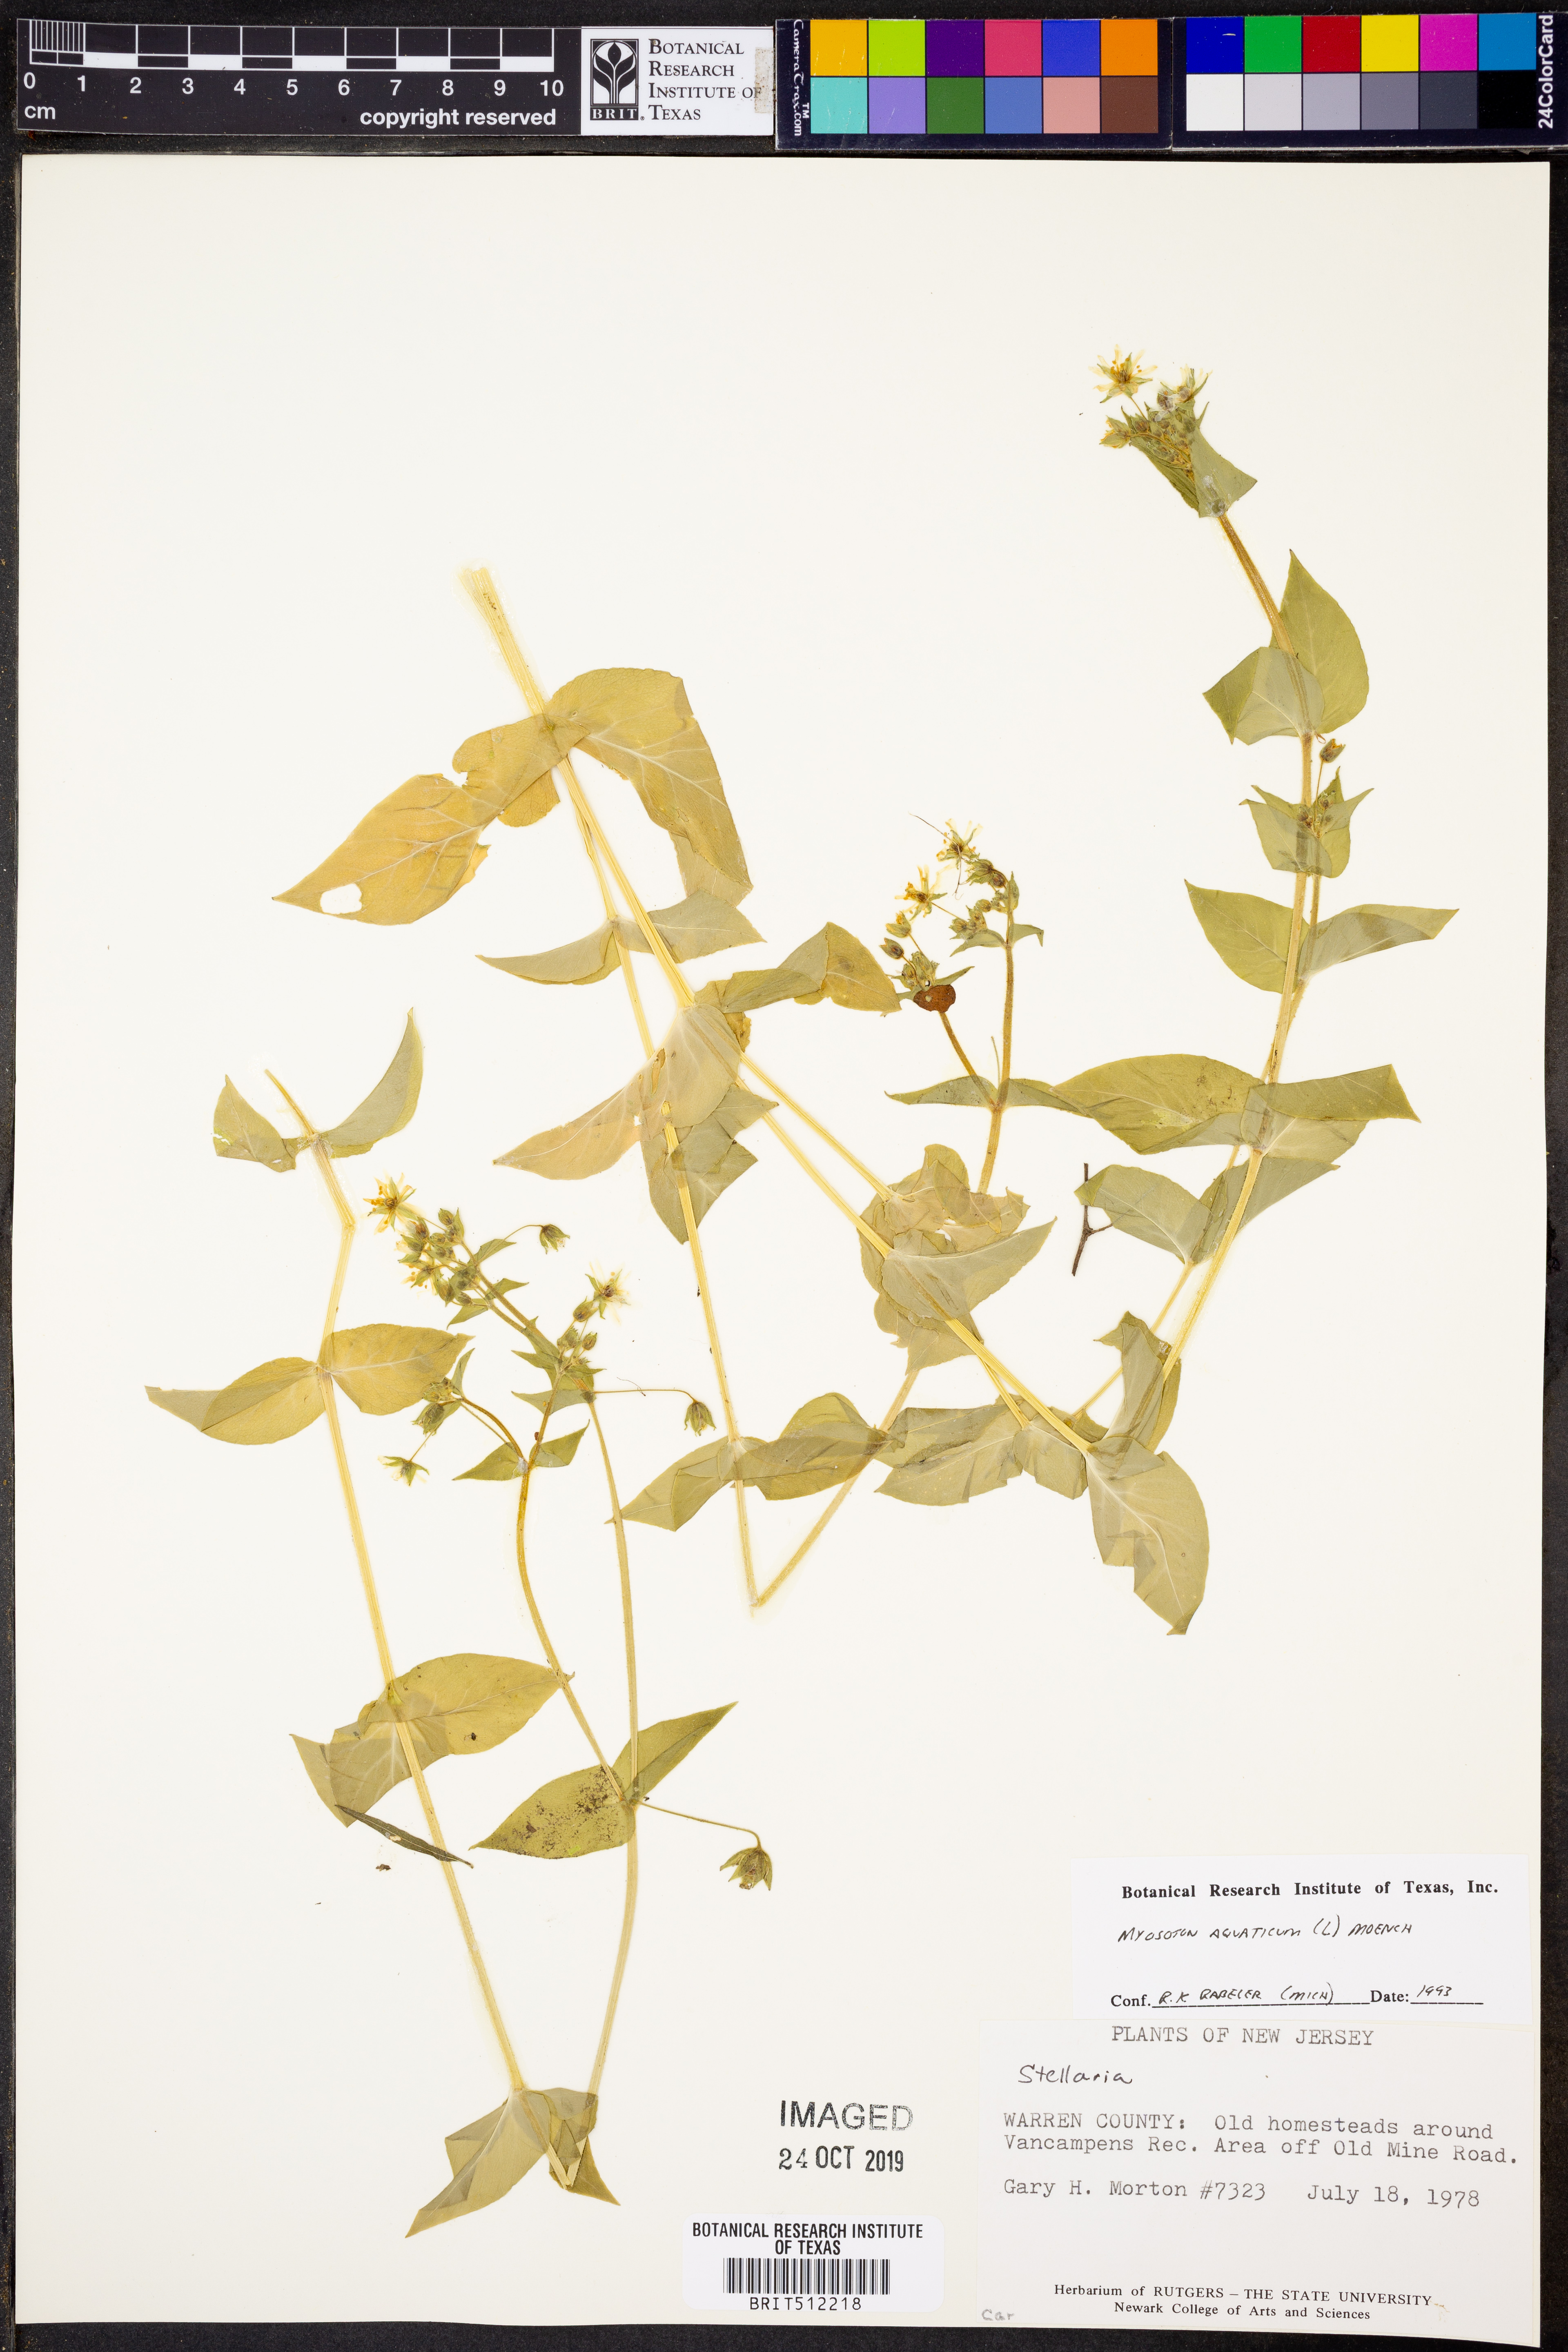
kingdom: Plantae
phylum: Tracheophyta
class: Magnoliopsida
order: Caryophyllales
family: Caryophyllaceae
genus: Stellaria
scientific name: Stellaria aquatica
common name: Water chickweed
